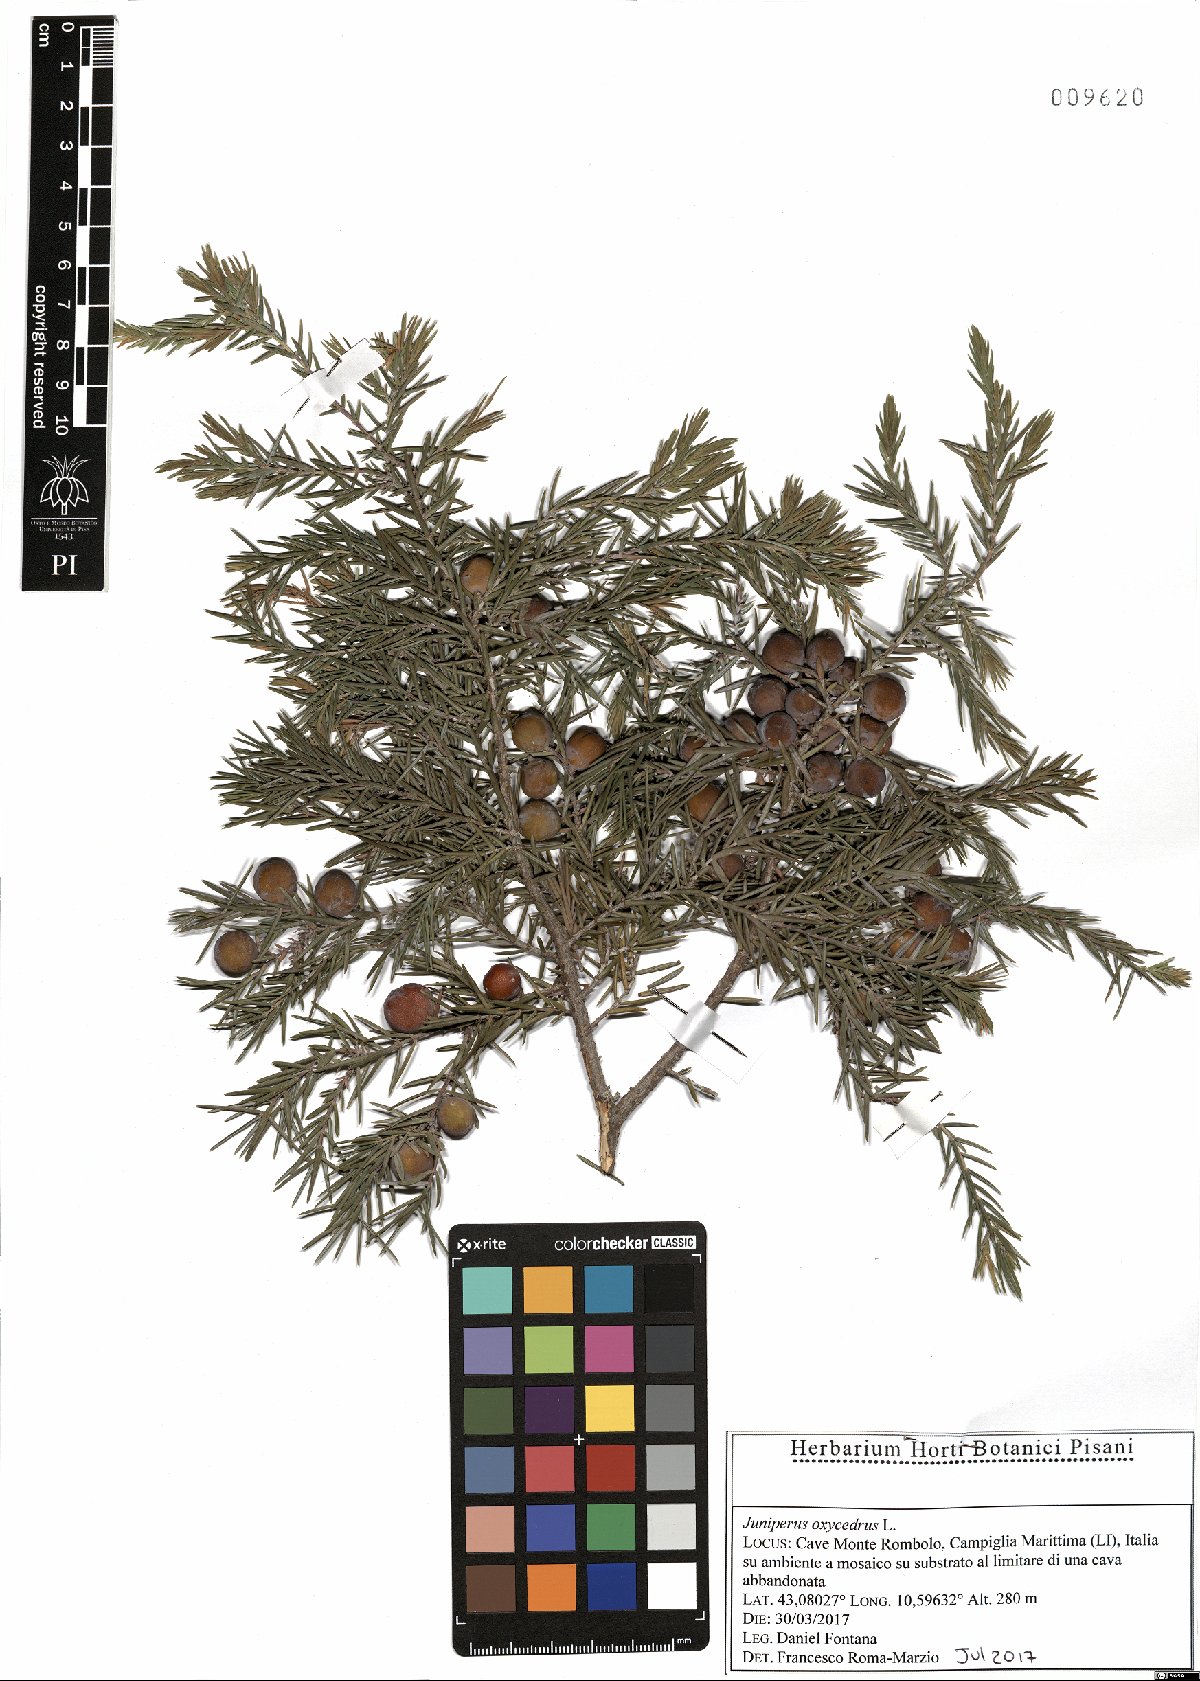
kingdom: Plantae
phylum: Tracheophyta
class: Pinopsida
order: Pinales
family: Cupressaceae
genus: Juniperus
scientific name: Juniperus oxycedrus
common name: Prickly juniper
